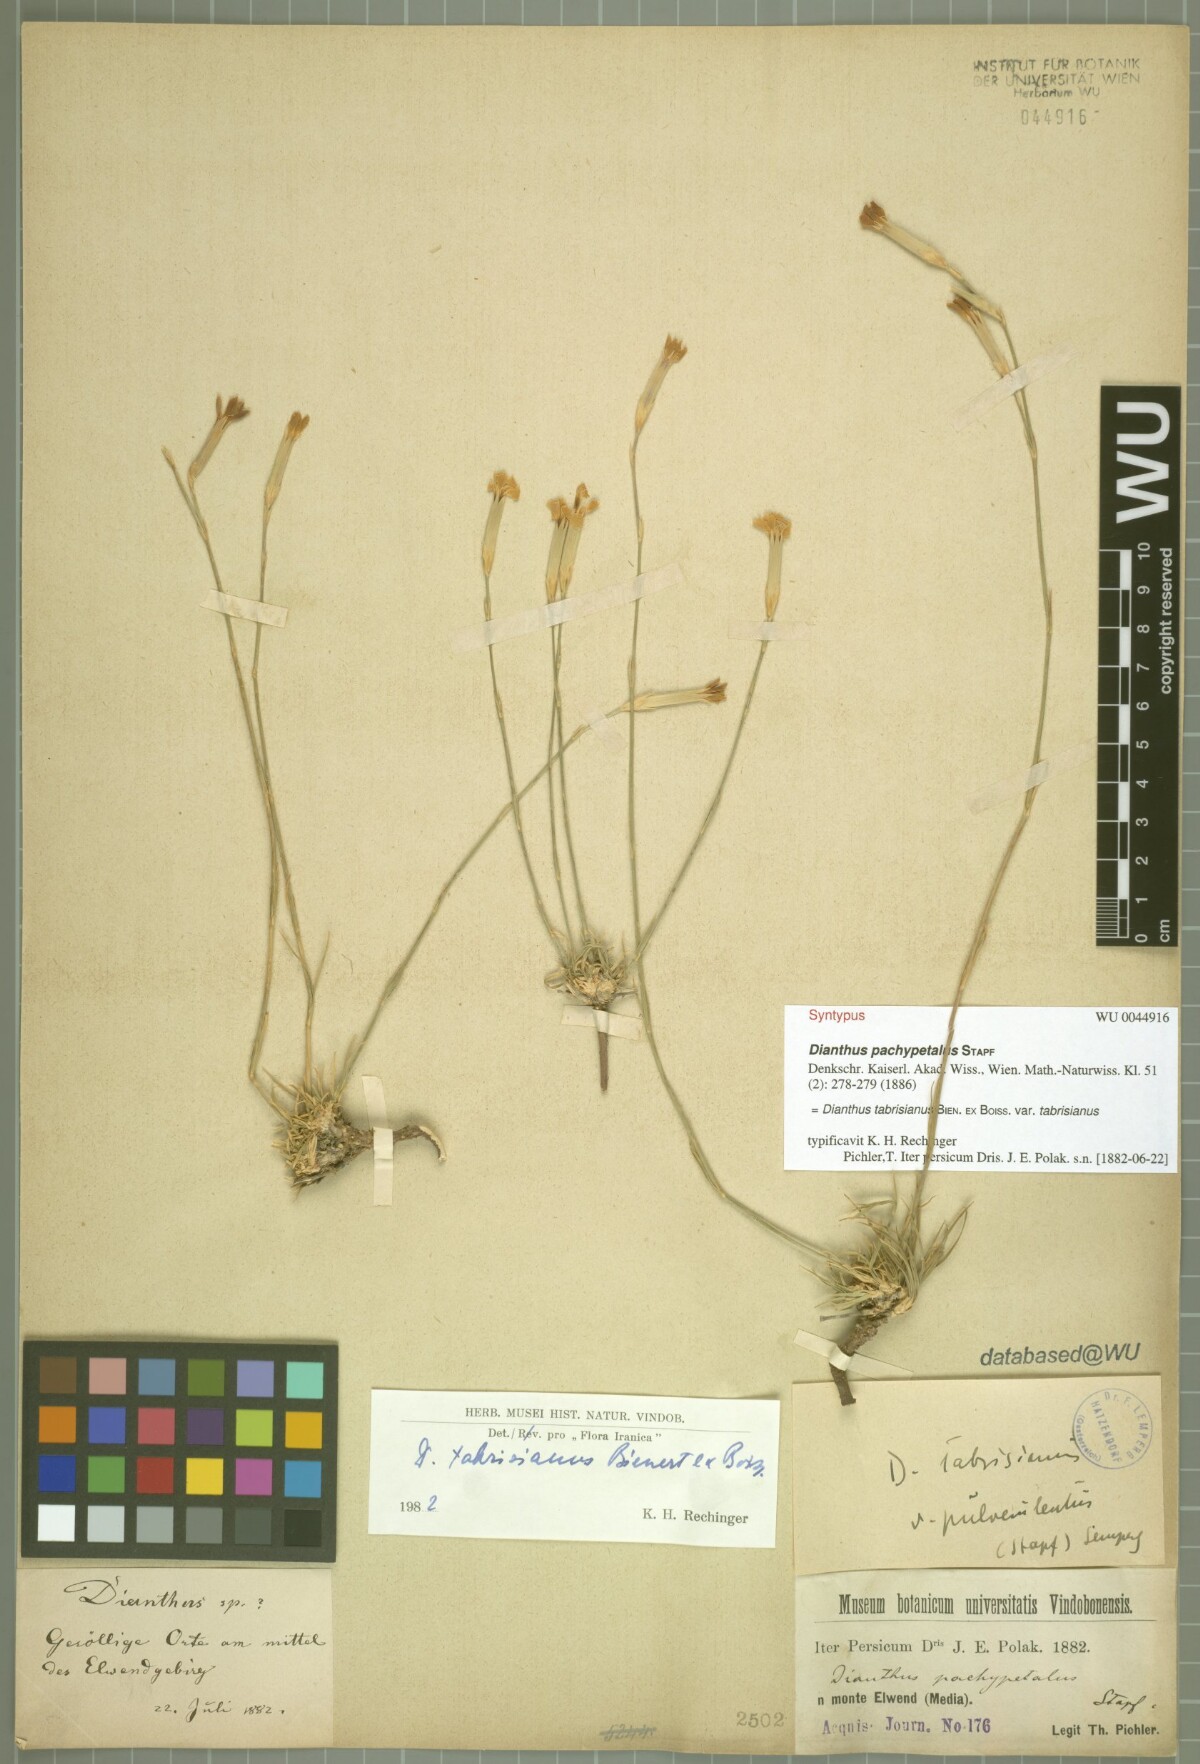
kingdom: Plantae
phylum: Tracheophyta
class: Magnoliopsida
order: Caryophyllales
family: Caryophyllaceae
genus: Dianthus
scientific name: Dianthus tabrisianus
